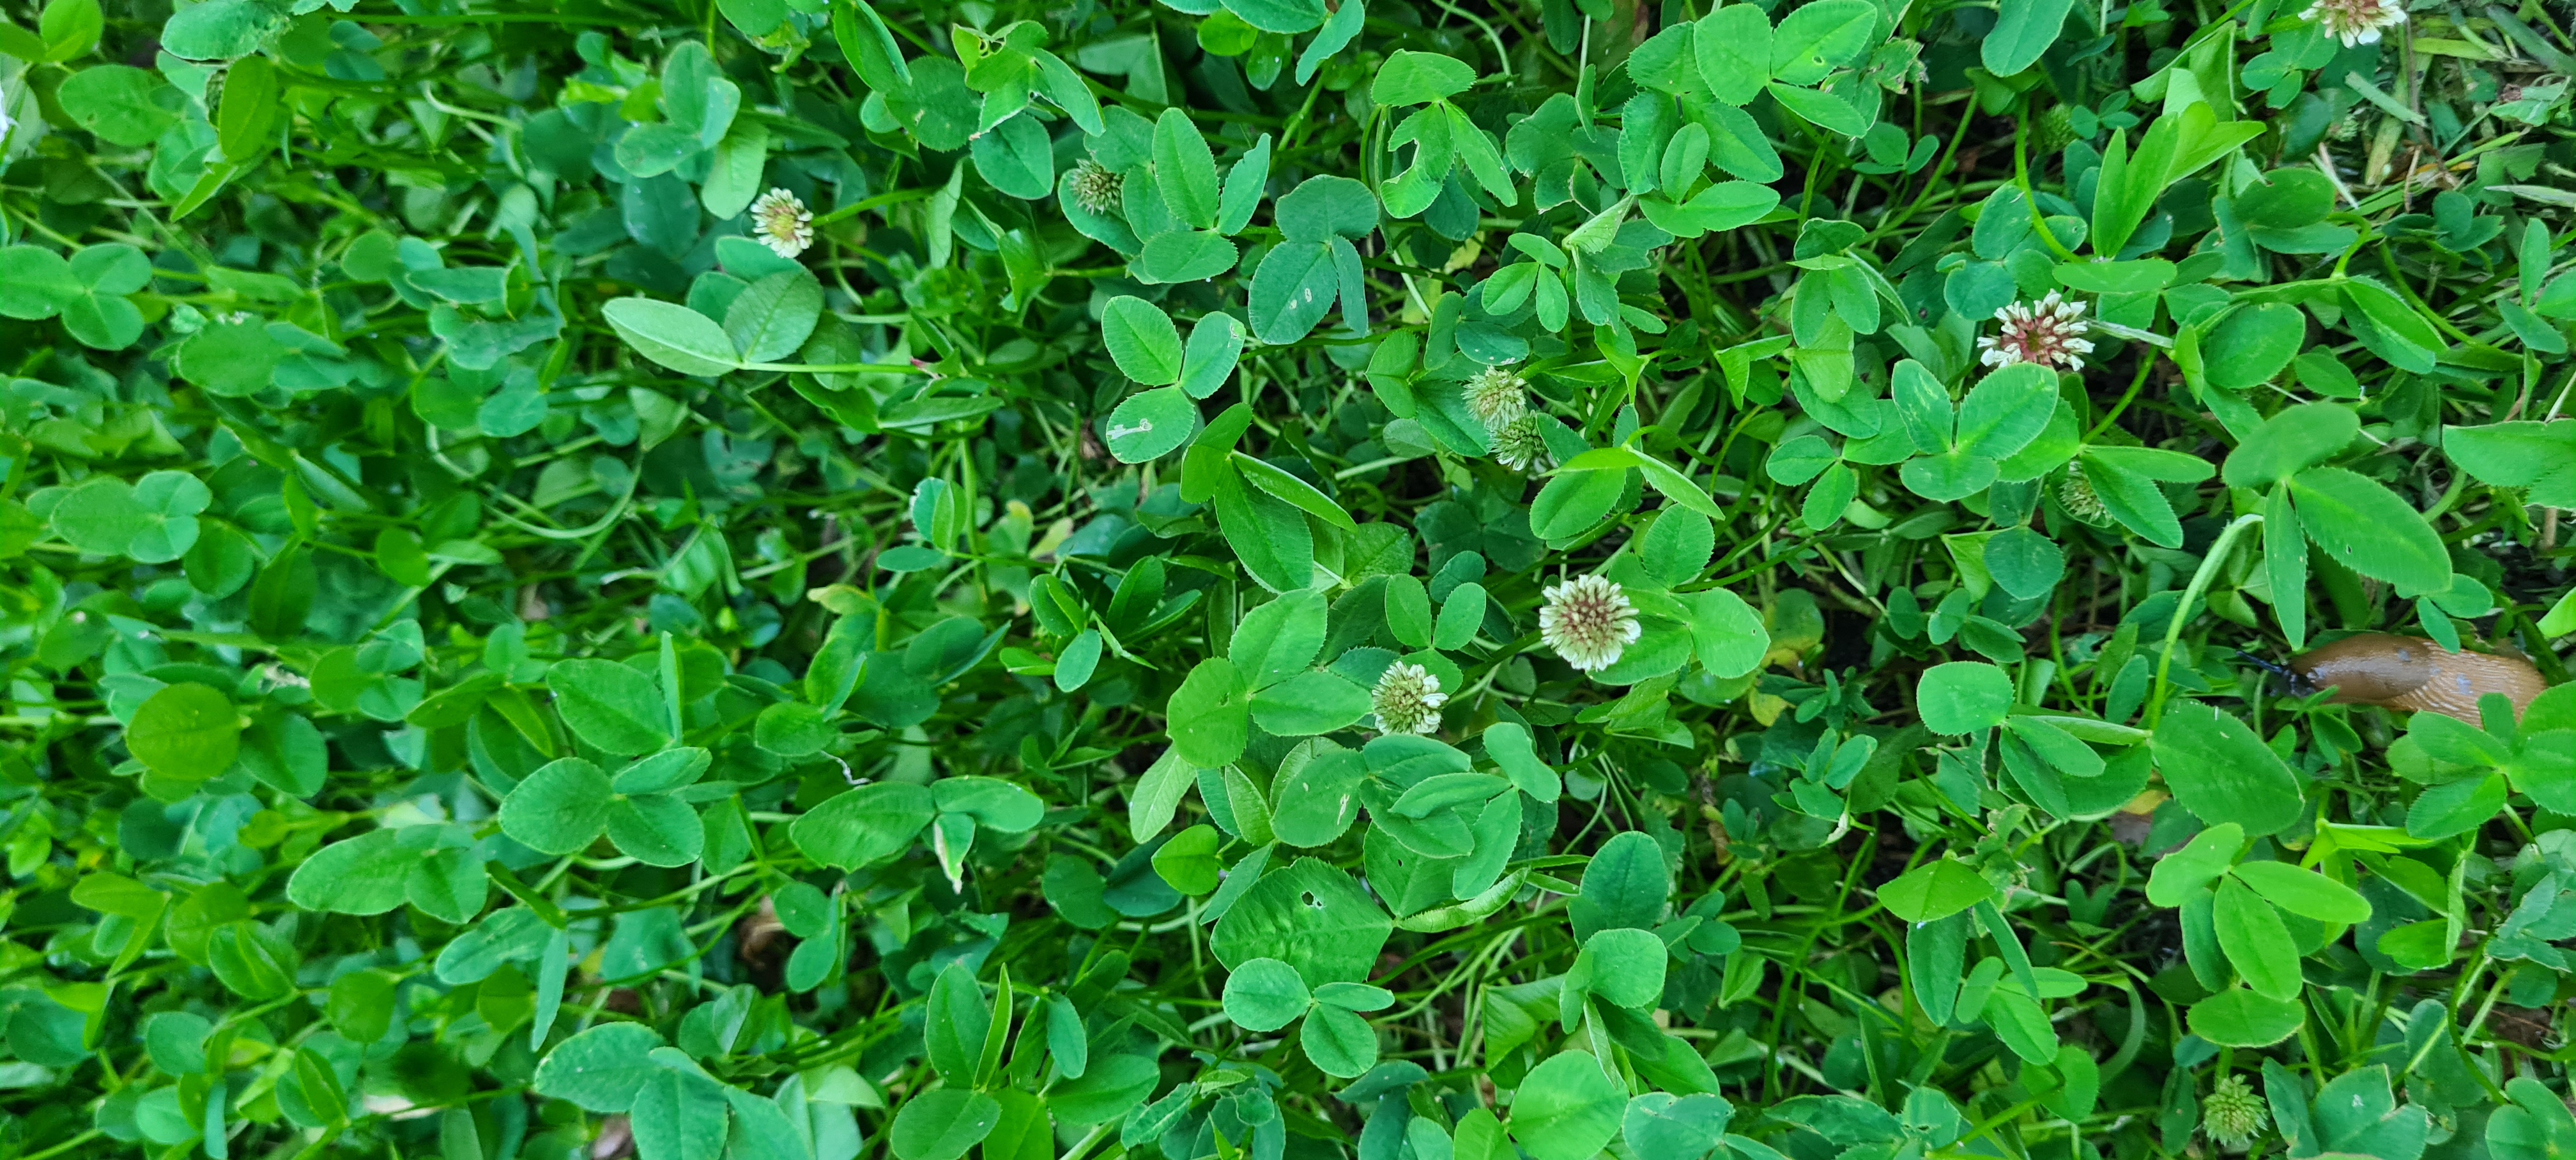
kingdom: Plantae
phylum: Tracheophyta
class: Magnoliopsida
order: Fabales
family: Fabaceae
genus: Trifolium
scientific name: Trifolium repens
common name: Hvid-kløver
